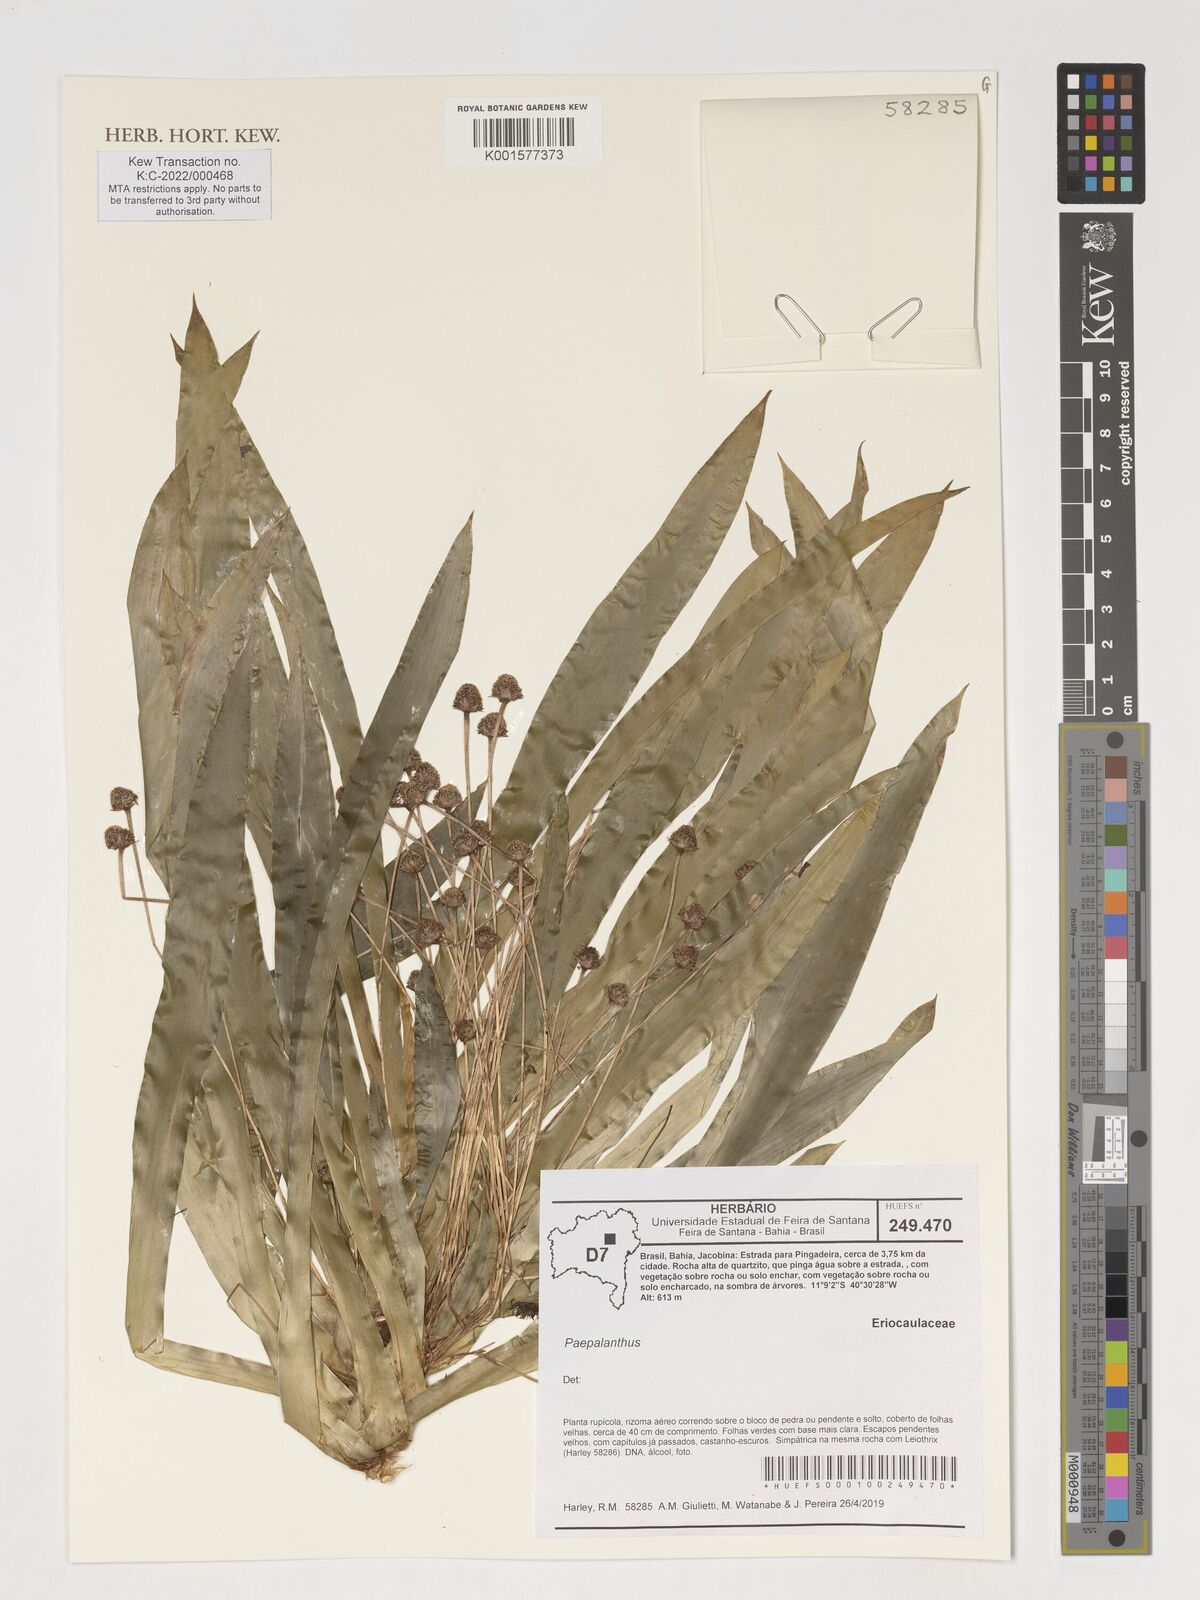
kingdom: Plantae
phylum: Tracheophyta
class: Liliopsida
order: Poales
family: Eriocaulaceae
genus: Paepalanthus
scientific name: Paepalanthus
